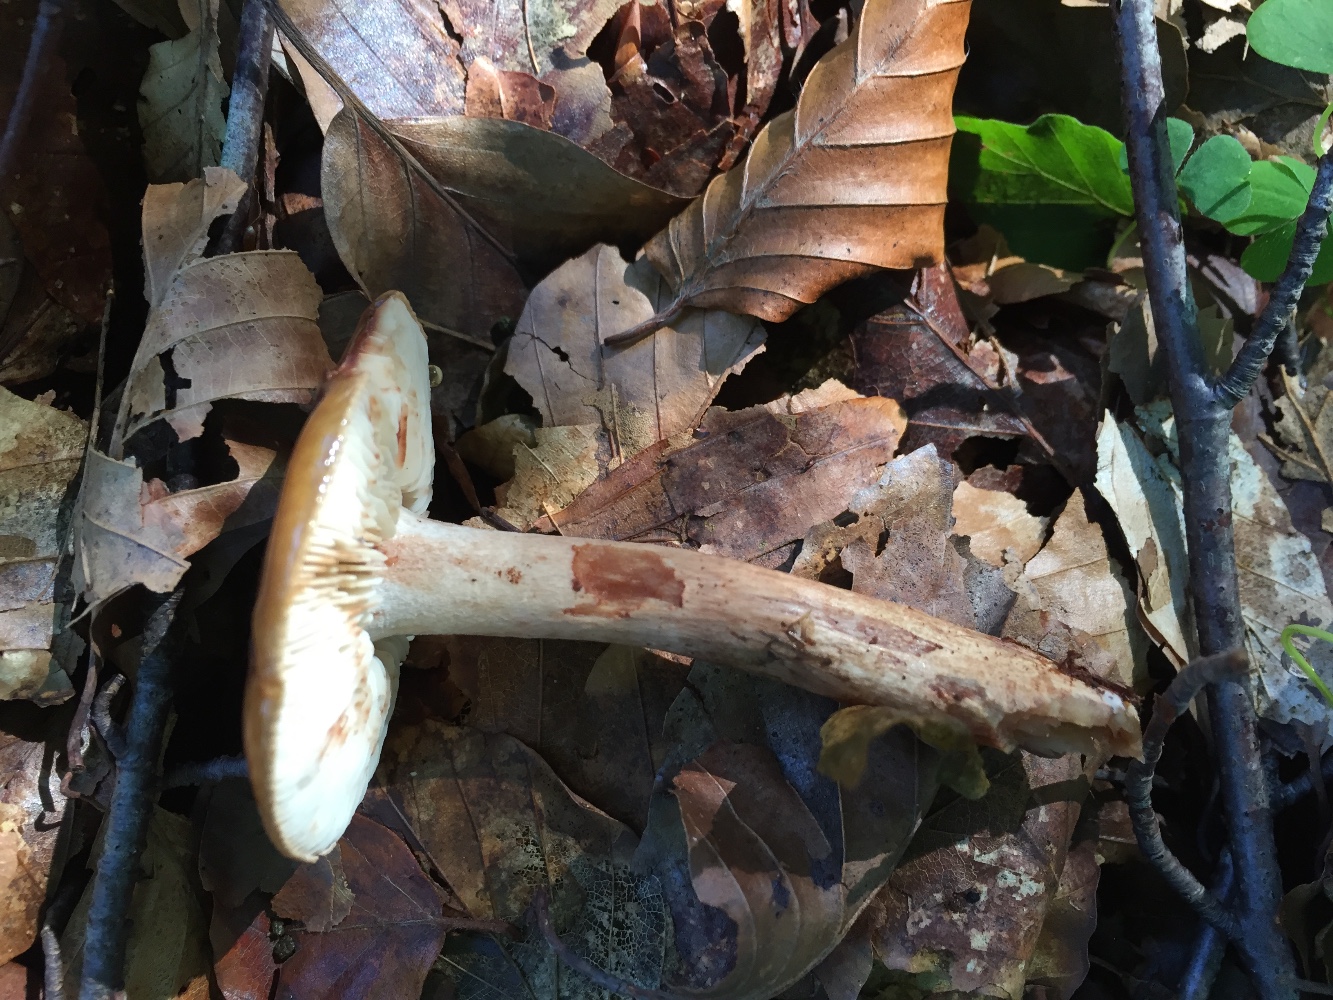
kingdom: Fungi
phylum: Basidiomycota
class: Agaricomycetes
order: Agaricales
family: Tricholomataceae
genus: Tricholoma
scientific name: Tricholoma ustale
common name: sveden ridderhat
